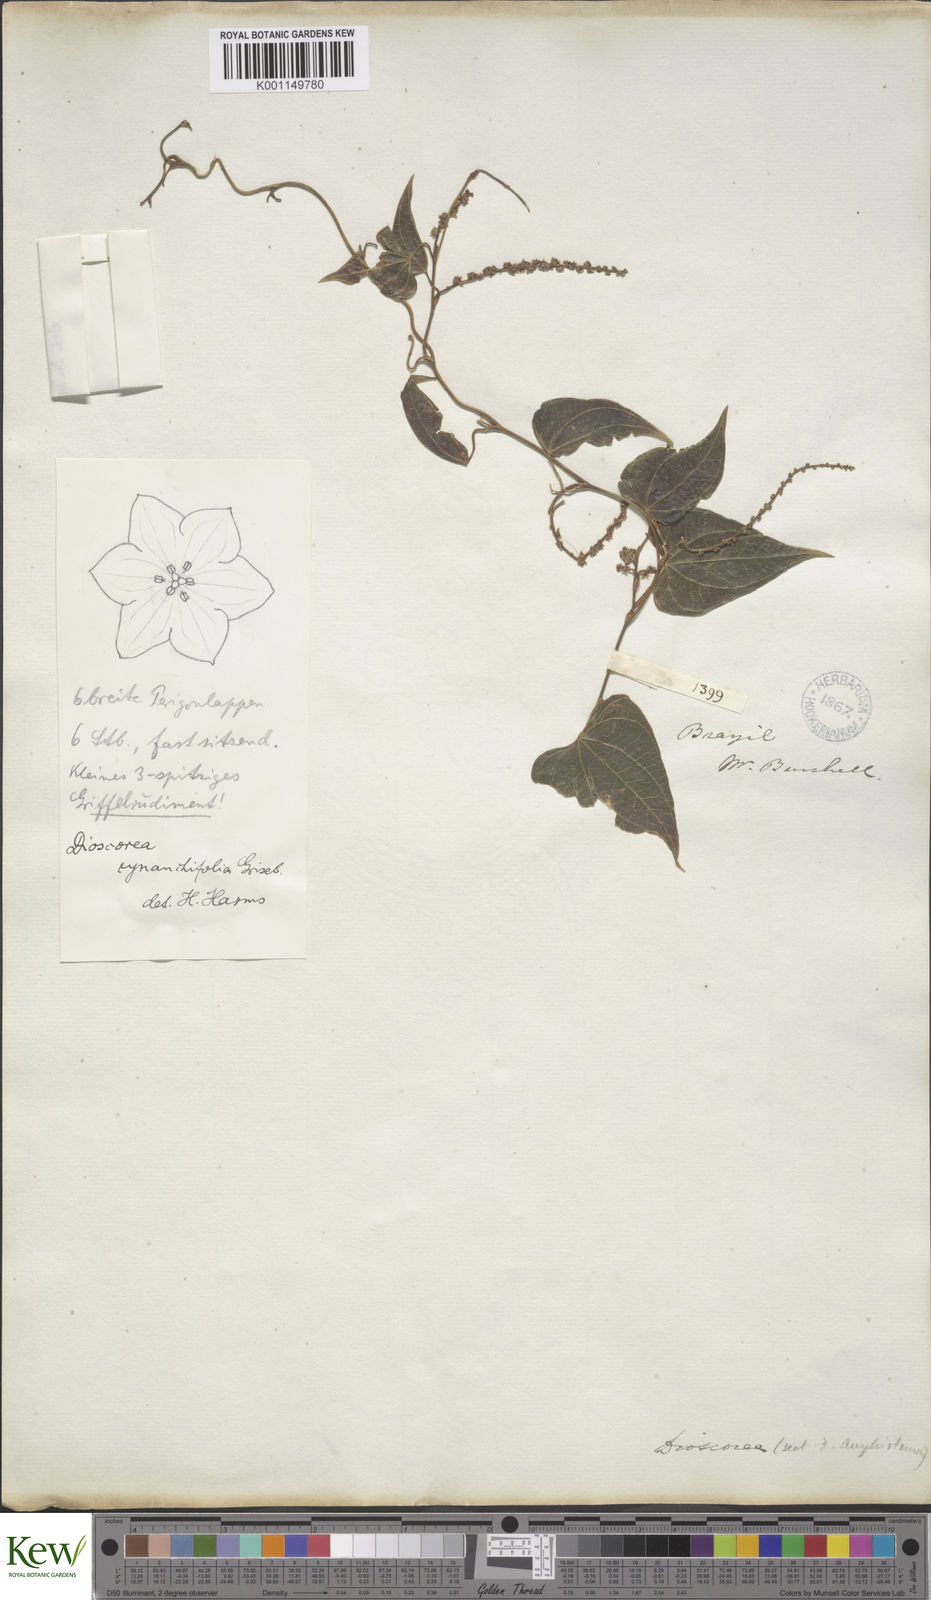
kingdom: Plantae
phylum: Tracheophyta
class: Liliopsida
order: Dioscoreales
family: Dioscoreaceae
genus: Dioscorea
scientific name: Dioscorea marginata
